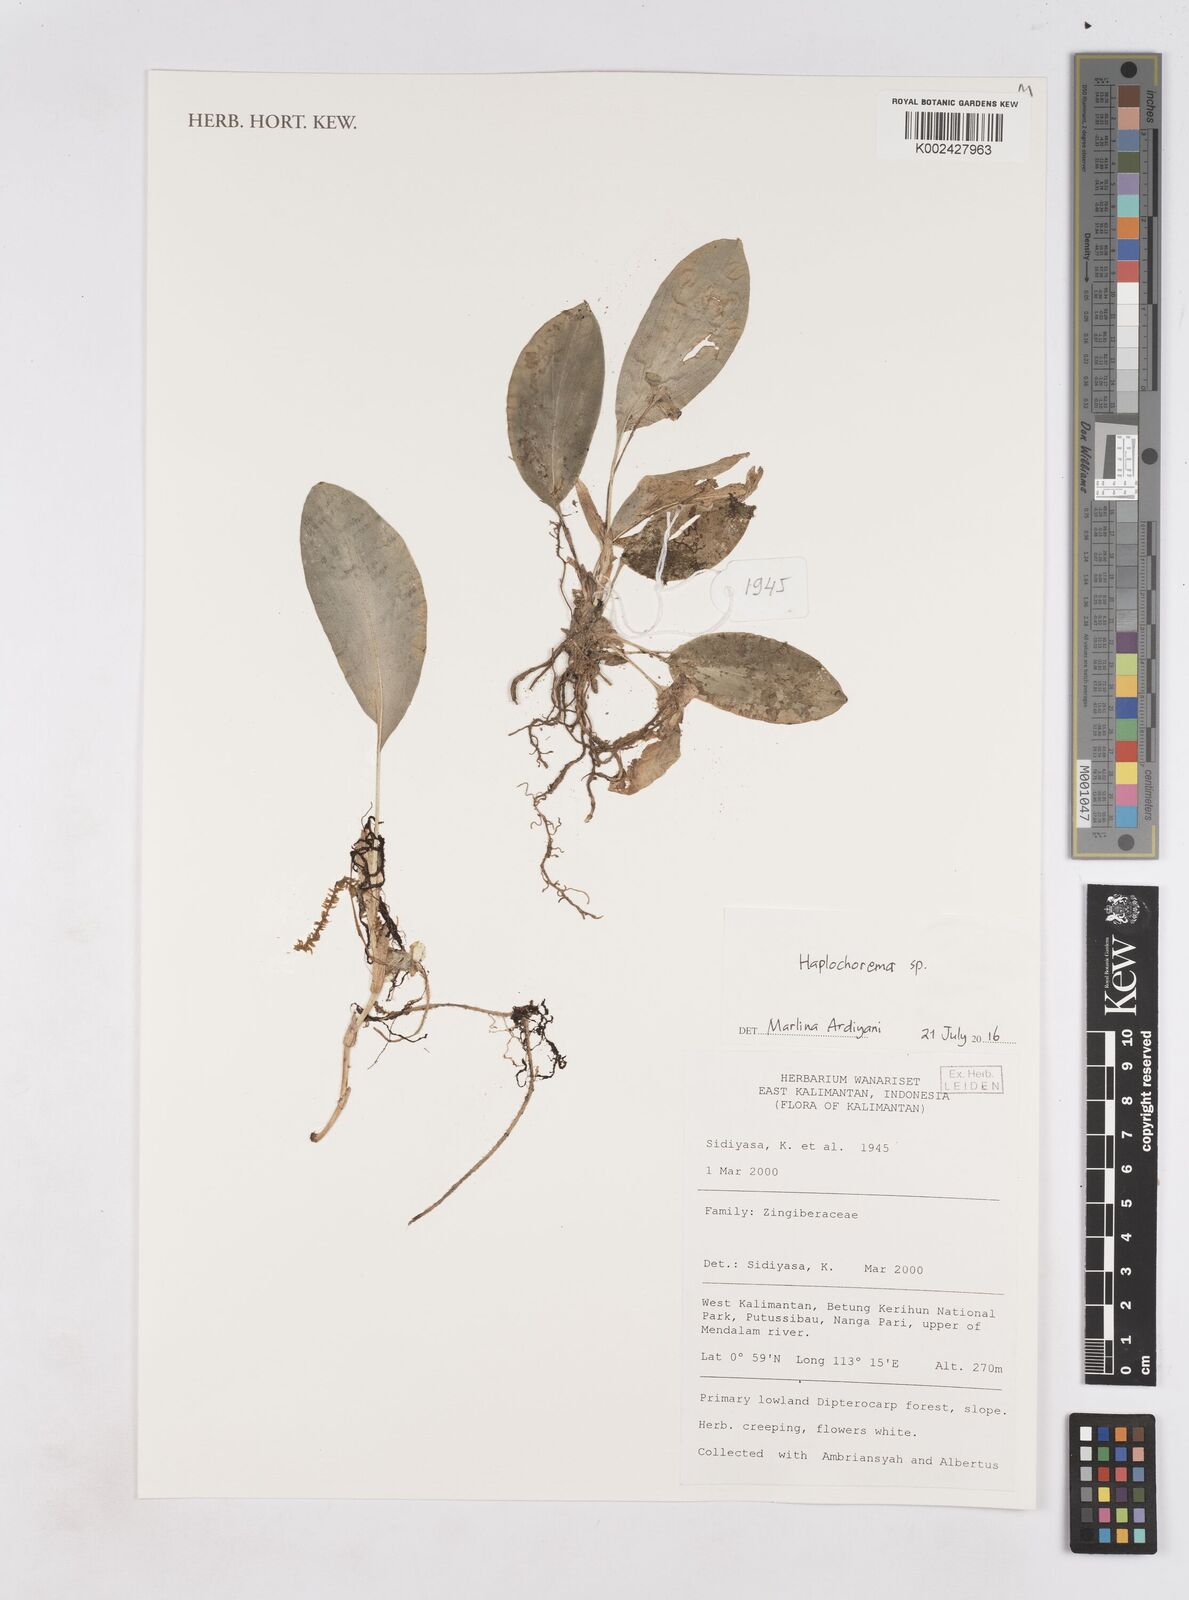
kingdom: Plantae
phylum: Tracheophyta
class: Liliopsida
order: Zingiberales
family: Zingiberaceae
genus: Boesenbergia
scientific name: Boesenbergia
